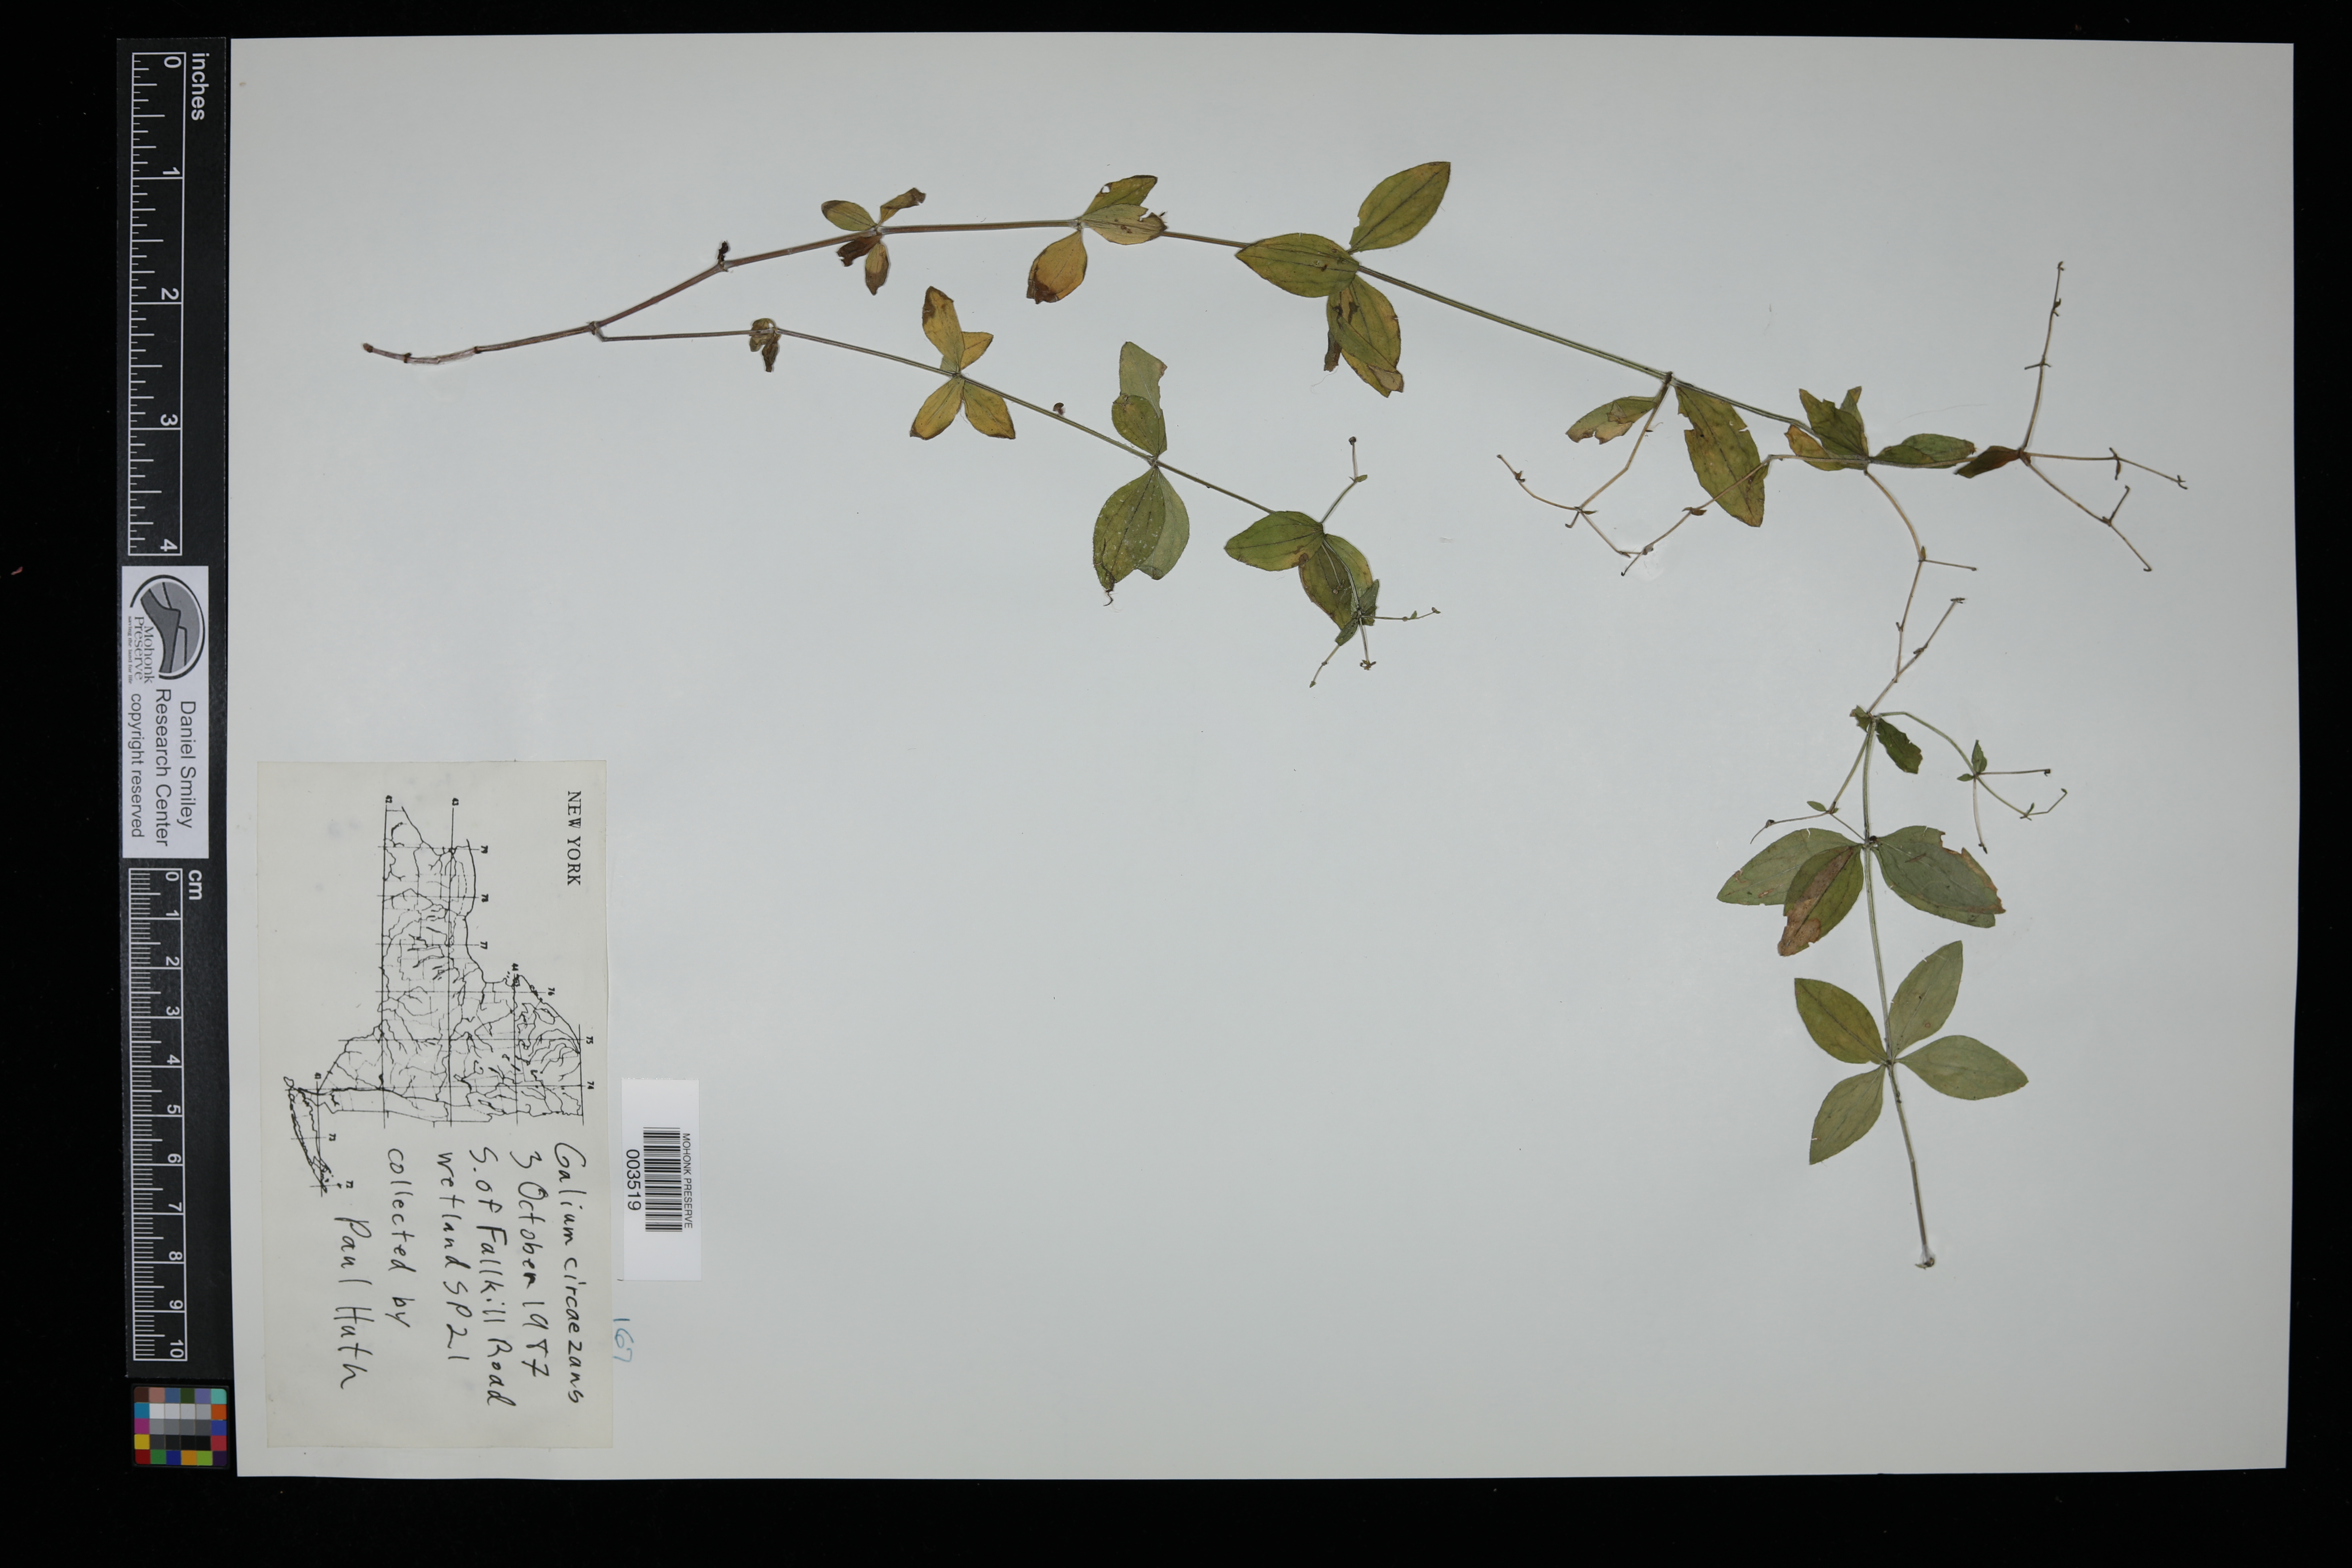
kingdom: Plantae
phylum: Tracheophyta
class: Magnoliopsida
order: Gentianales
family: Rubiaceae
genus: Galium
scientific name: Galium circaezans
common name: Forest bedstraw
